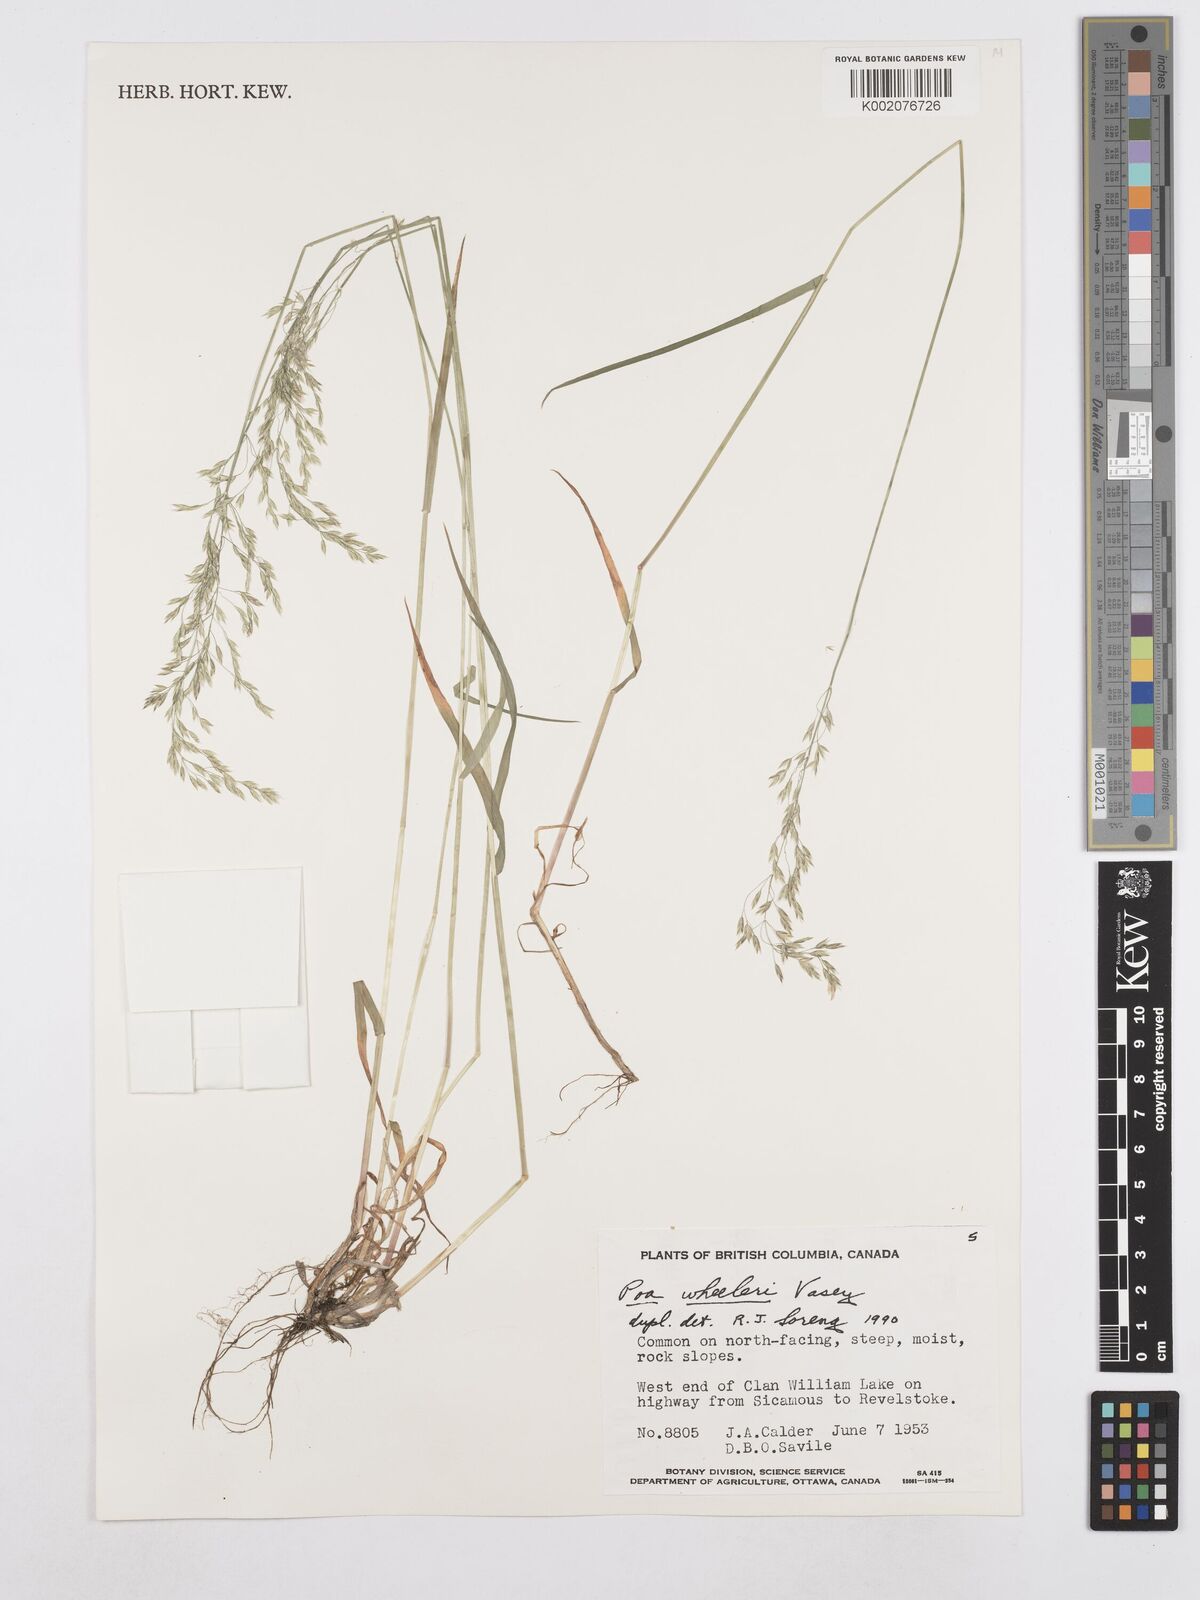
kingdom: Plantae
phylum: Tracheophyta
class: Liliopsida
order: Poales
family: Poaceae
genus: Poa
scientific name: Poa wheeleri
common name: Wheeler's bluegrass
